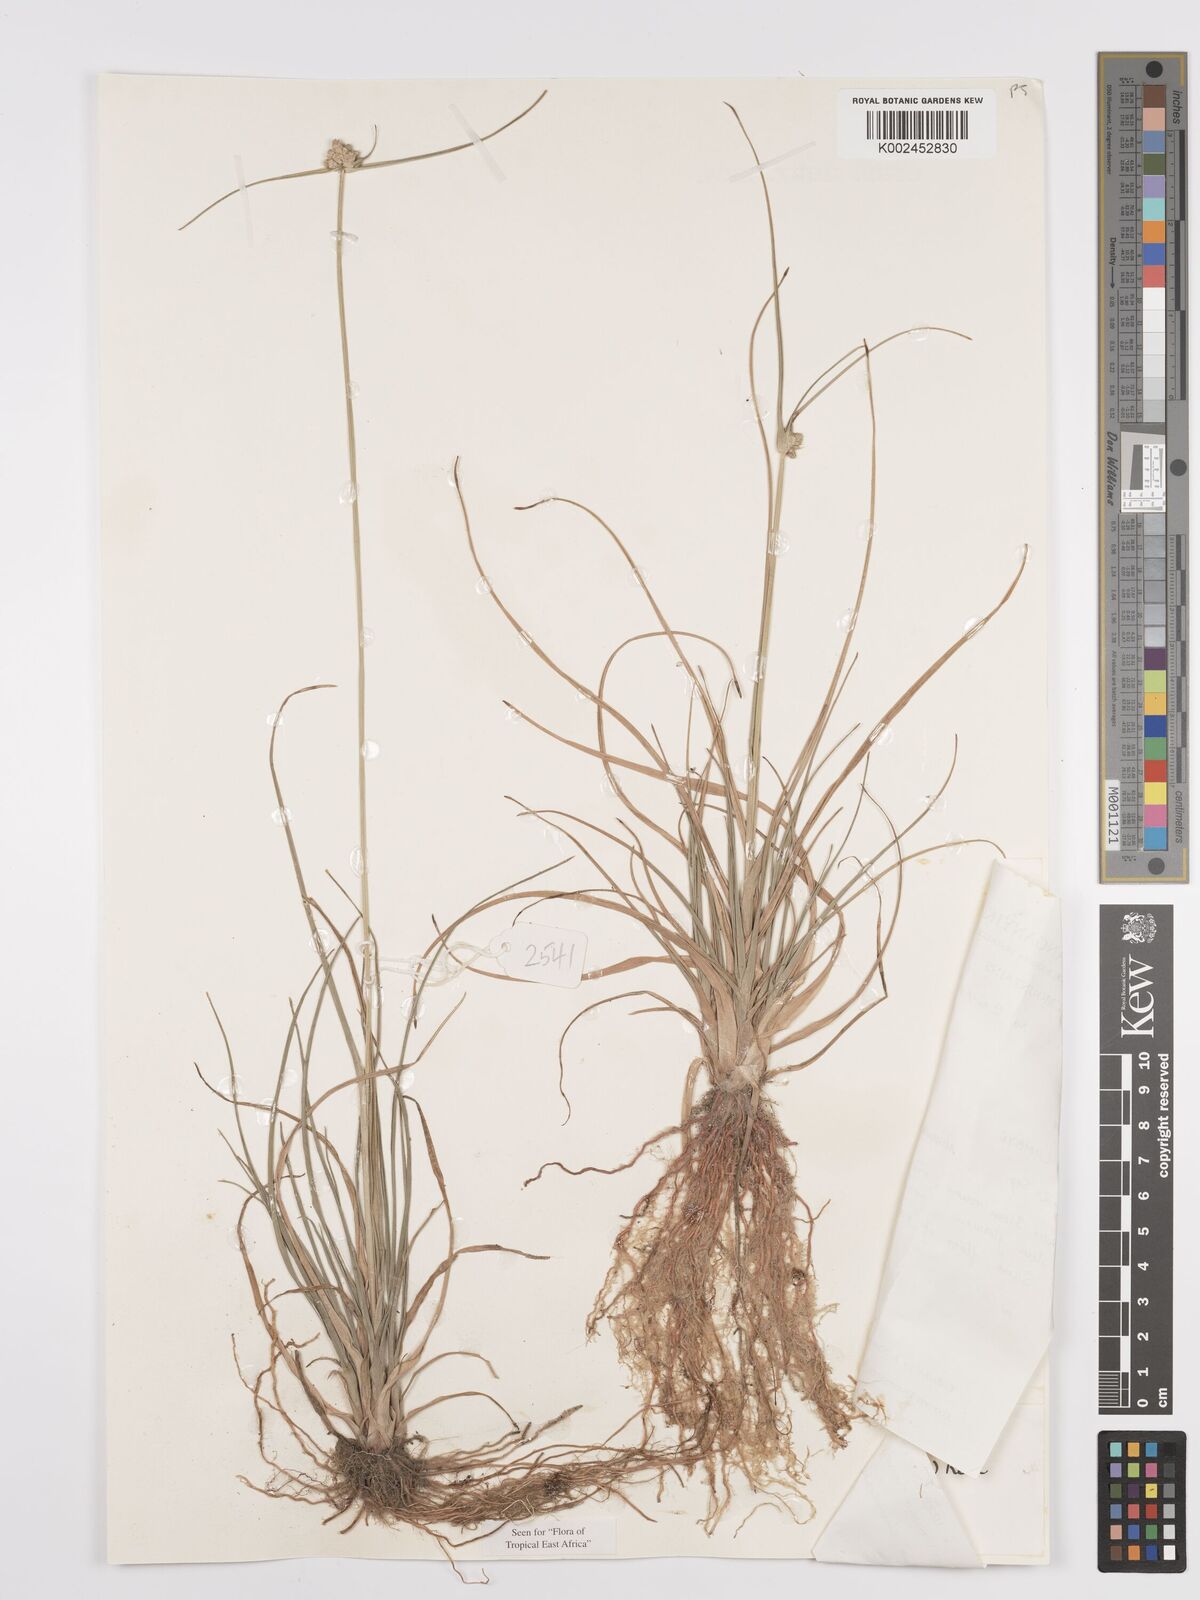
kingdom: Plantae
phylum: Tracheophyta
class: Liliopsida
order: Poales
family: Cyperaceae
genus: Cyperus
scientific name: Cyperus
